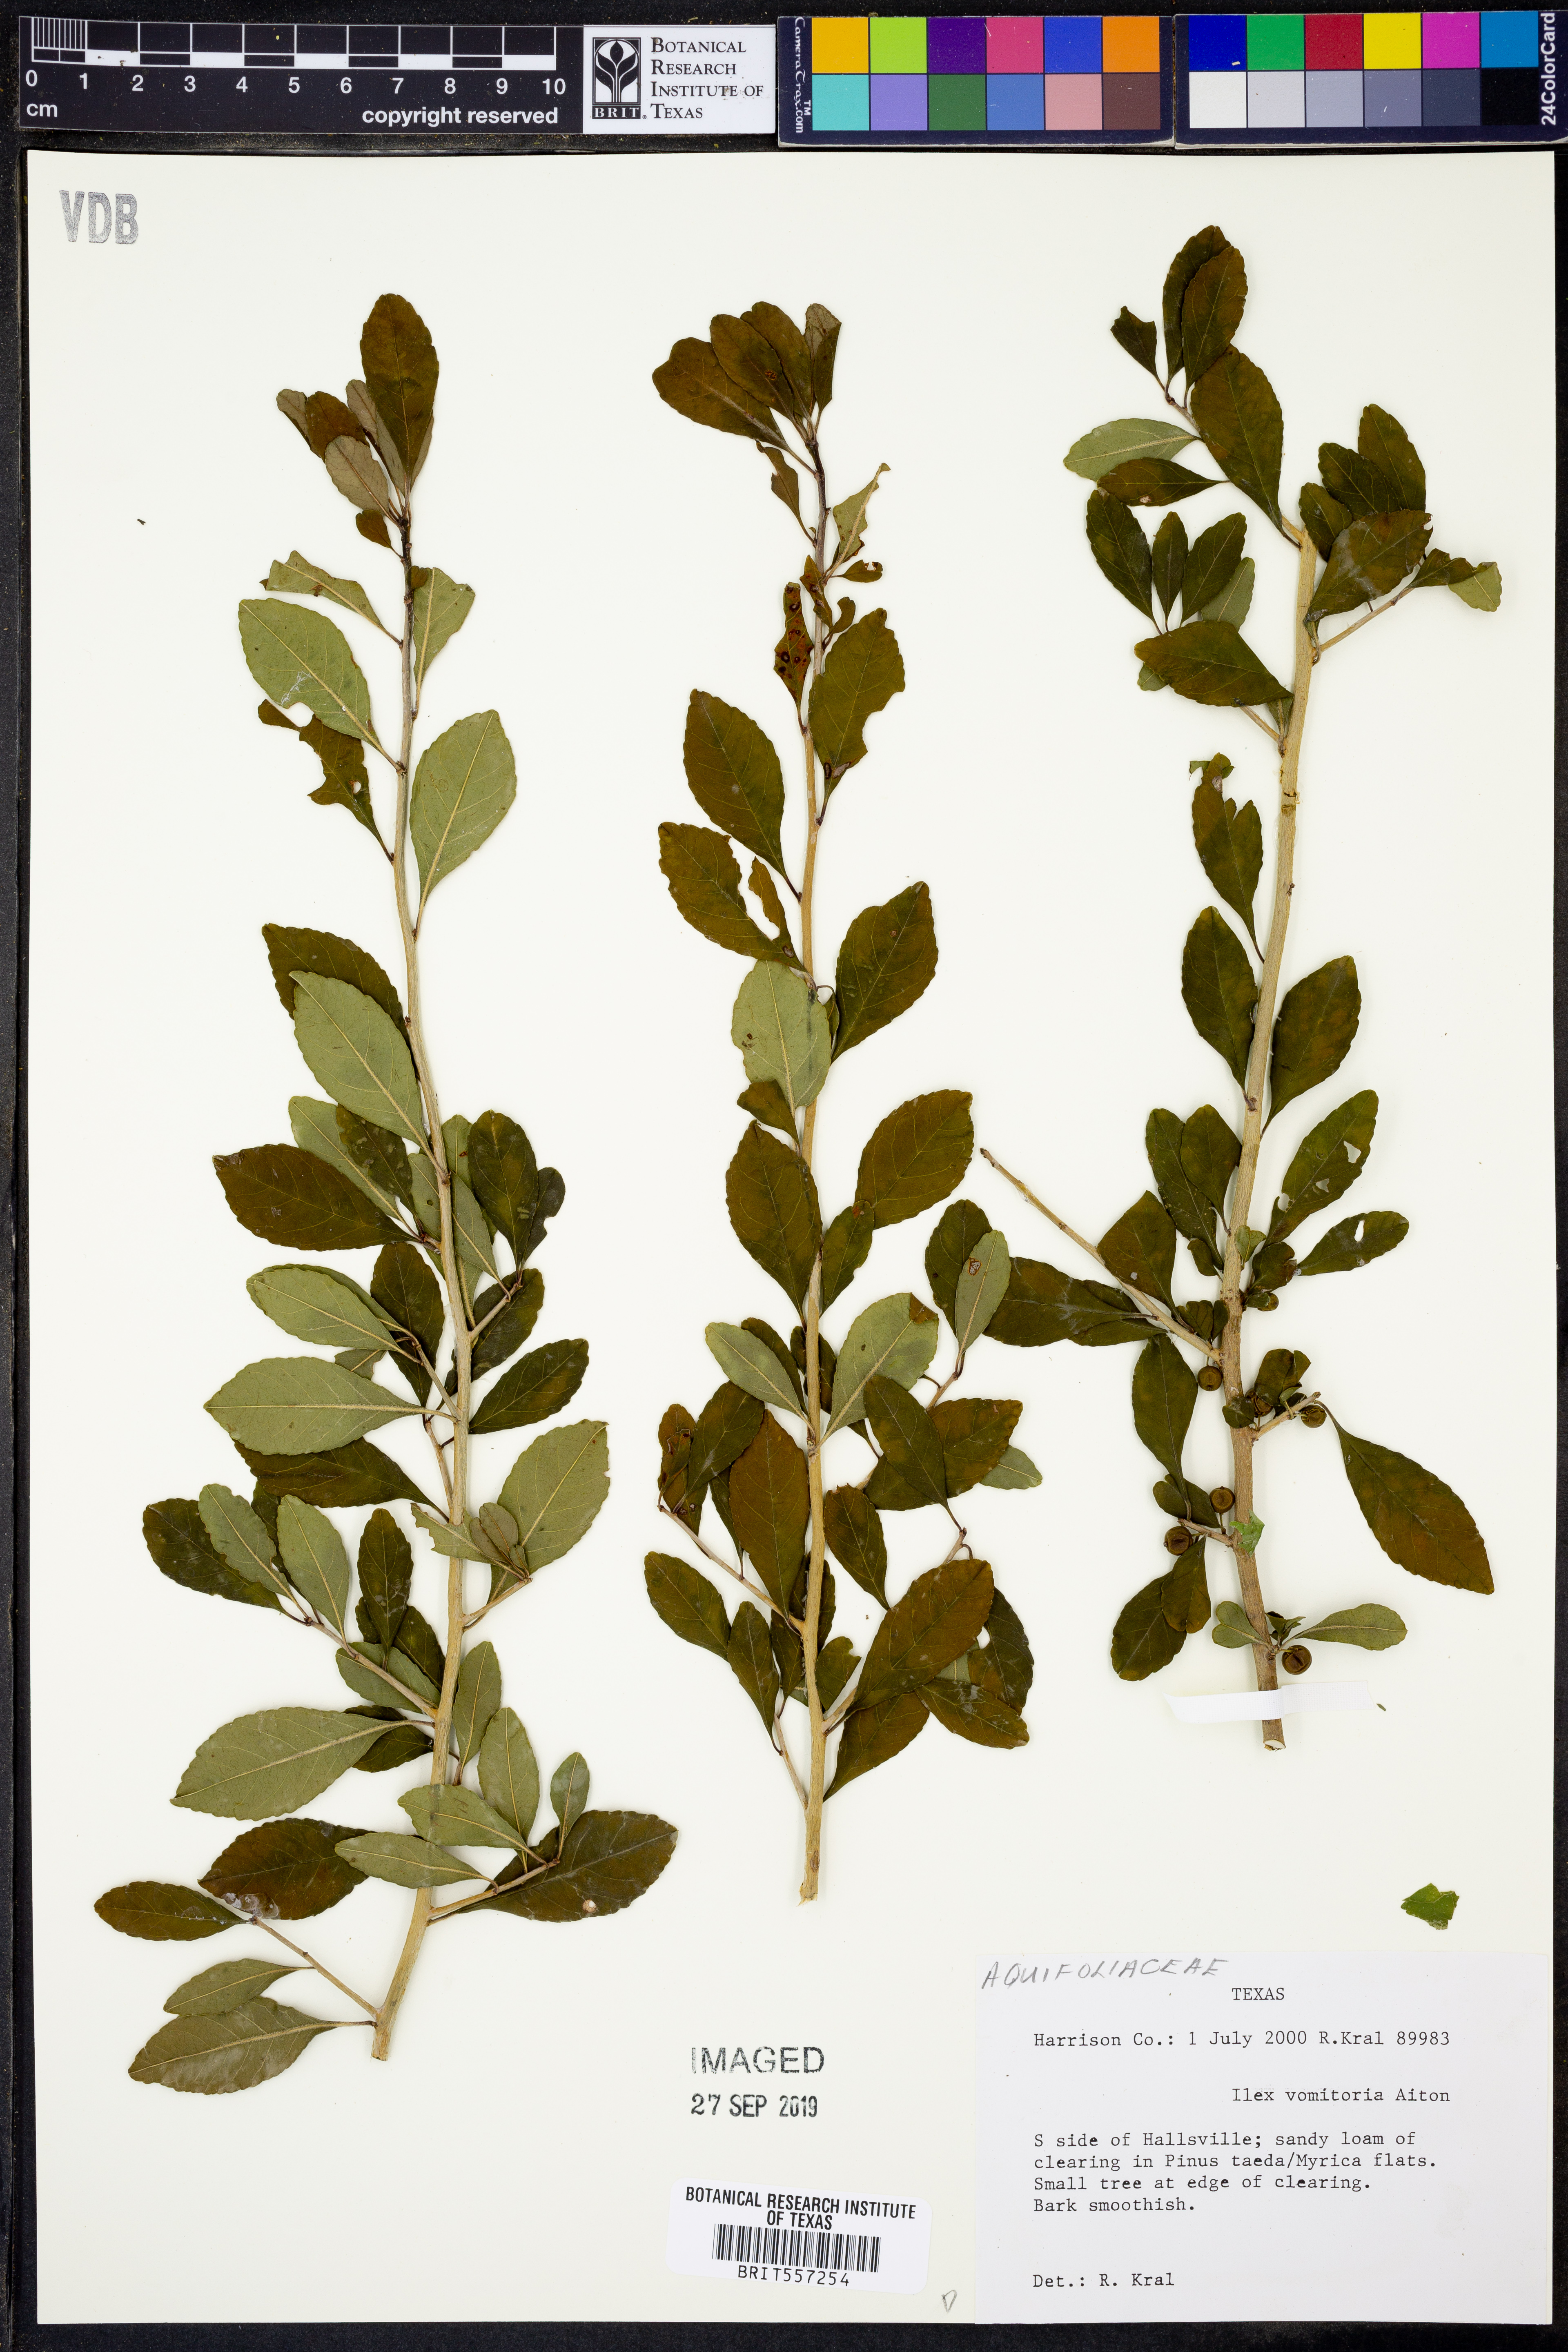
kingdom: Plantae
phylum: Tracheophyta
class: Magnoliopsida
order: Aquifoliales
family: Aquifoliaceae
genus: Ilex
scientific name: Ilex vomitoria
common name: Yaupon holly
